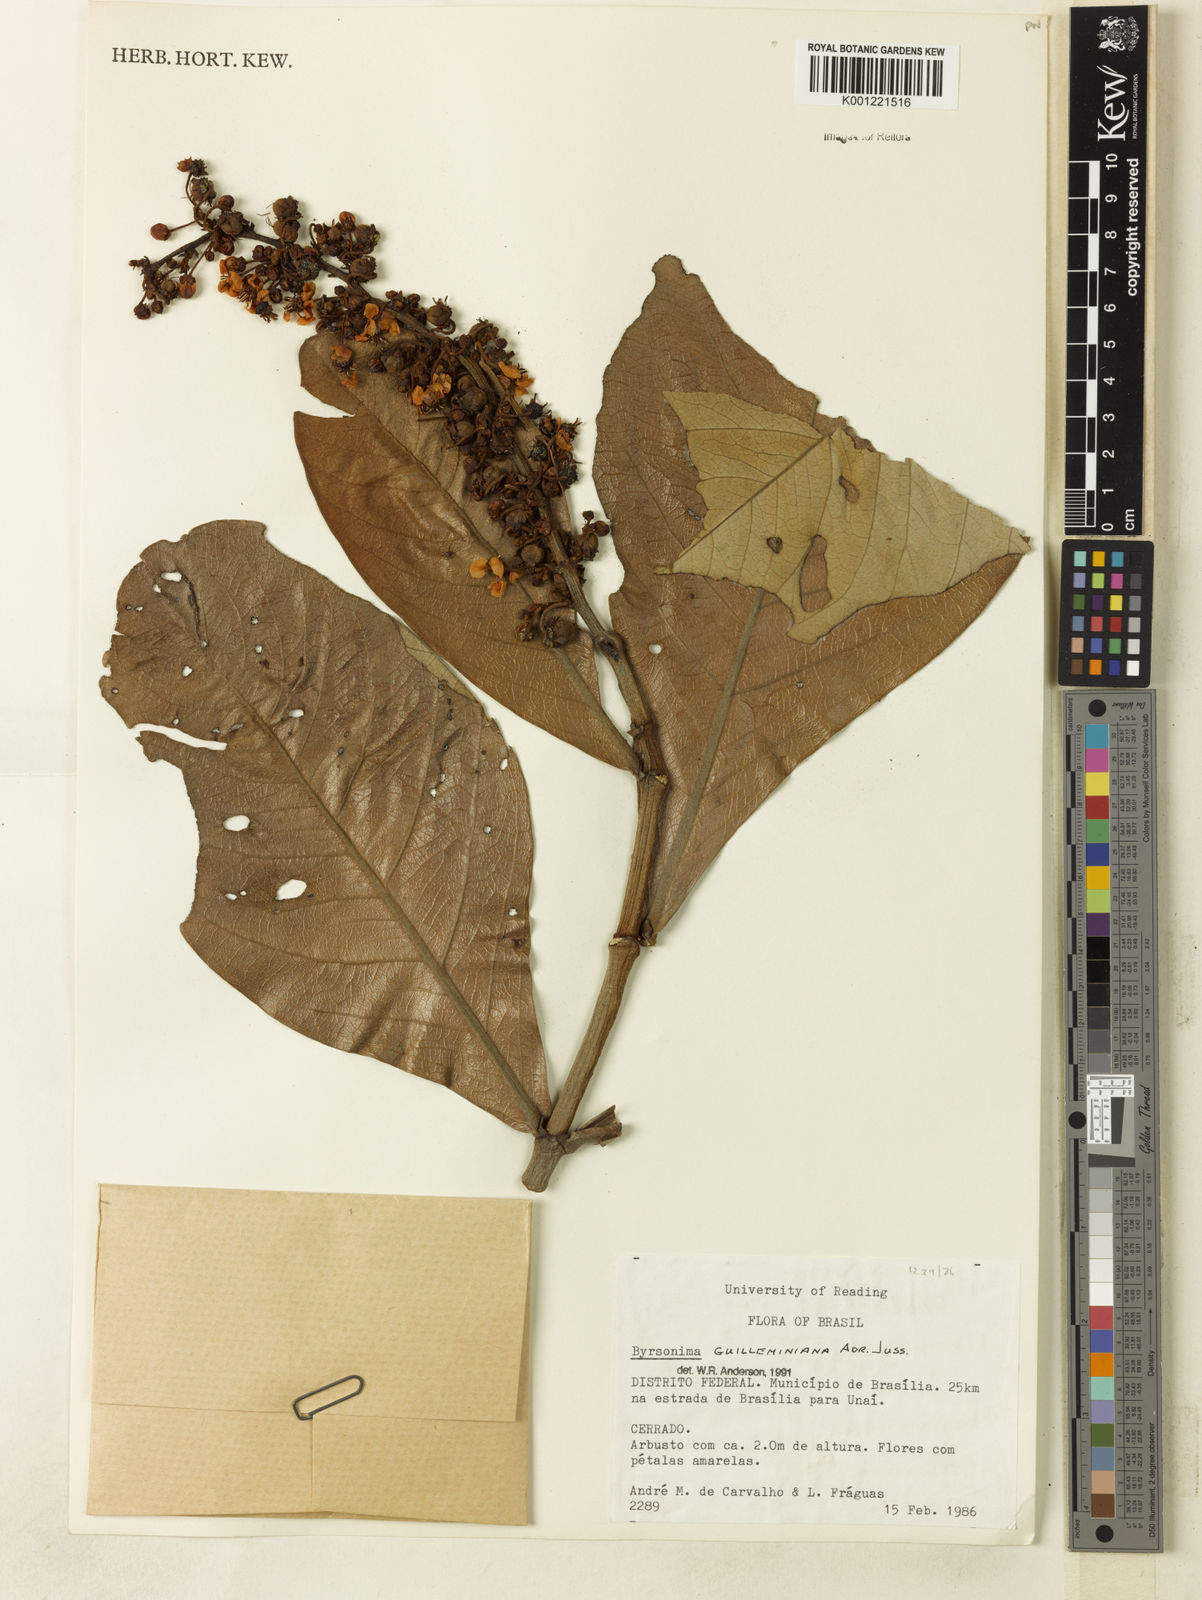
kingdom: Plantae
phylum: Tracheophyta
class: Magnoliopsida
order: Malpighiales
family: Malpighiaceae
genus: Byrsonima
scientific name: Byrsonima guilleminiana
